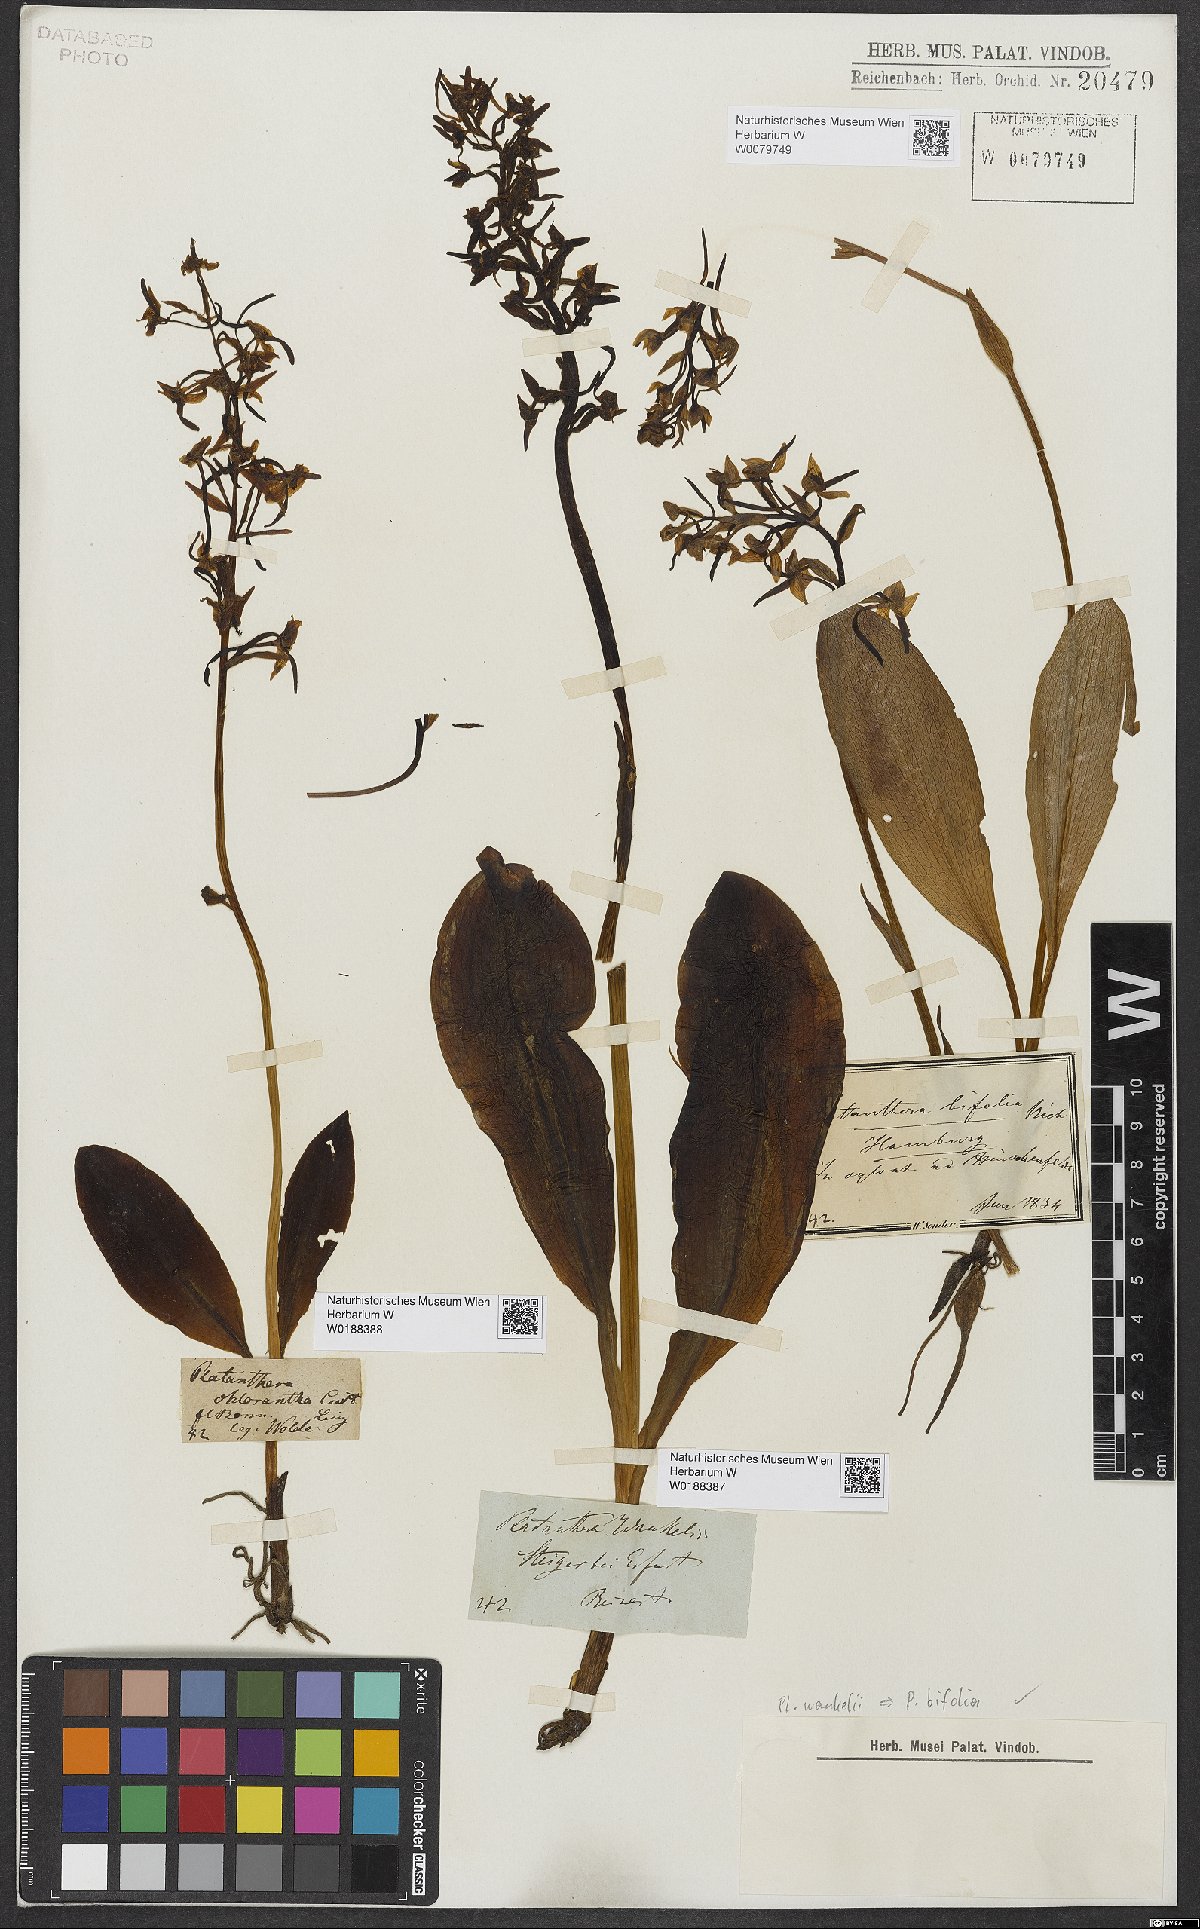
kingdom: Plantae
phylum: Tracheophyta
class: Liliopsida
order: Asparagales
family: Orchidaceae
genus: Platanthera
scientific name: Platanthera bifolia
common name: Lesser butterfly-orchid
